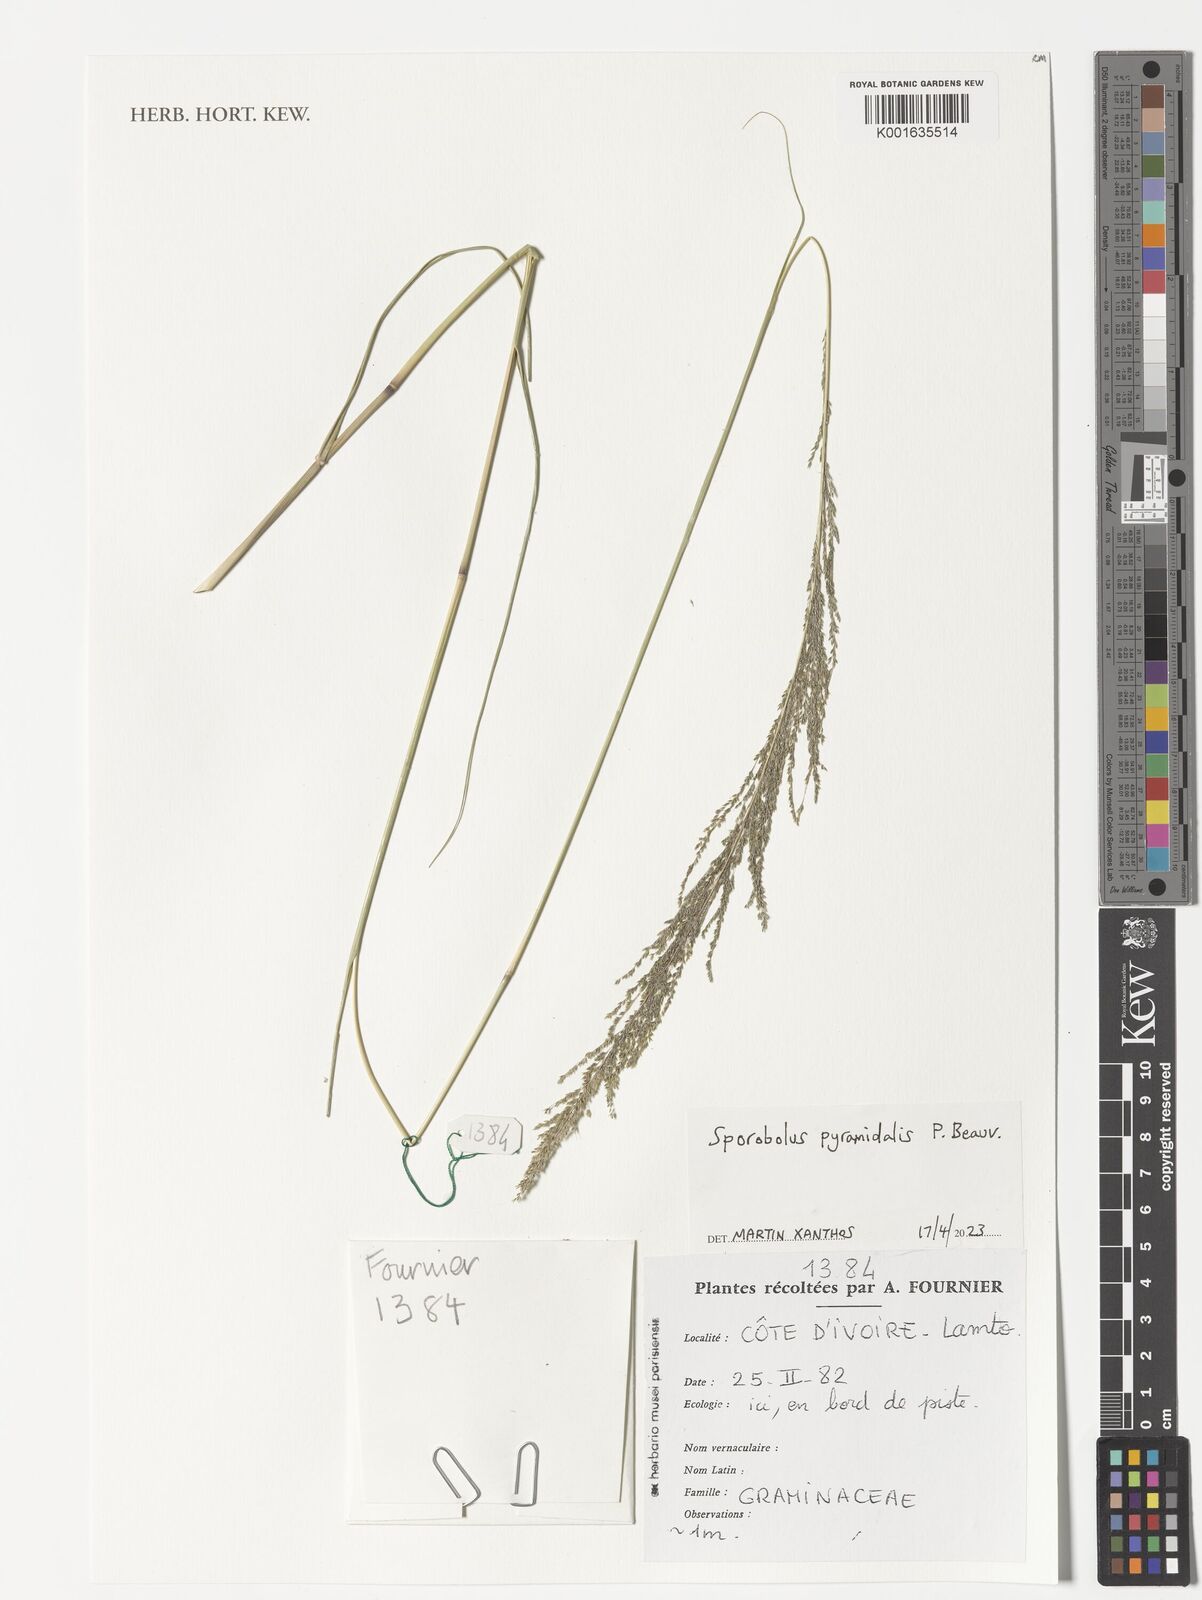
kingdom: Plantae
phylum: Tracheophyta
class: Liliopsida
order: Poales
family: Poaceae
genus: Sporobolus
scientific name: Sporobolus pyramidalis
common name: West indian dropseed
